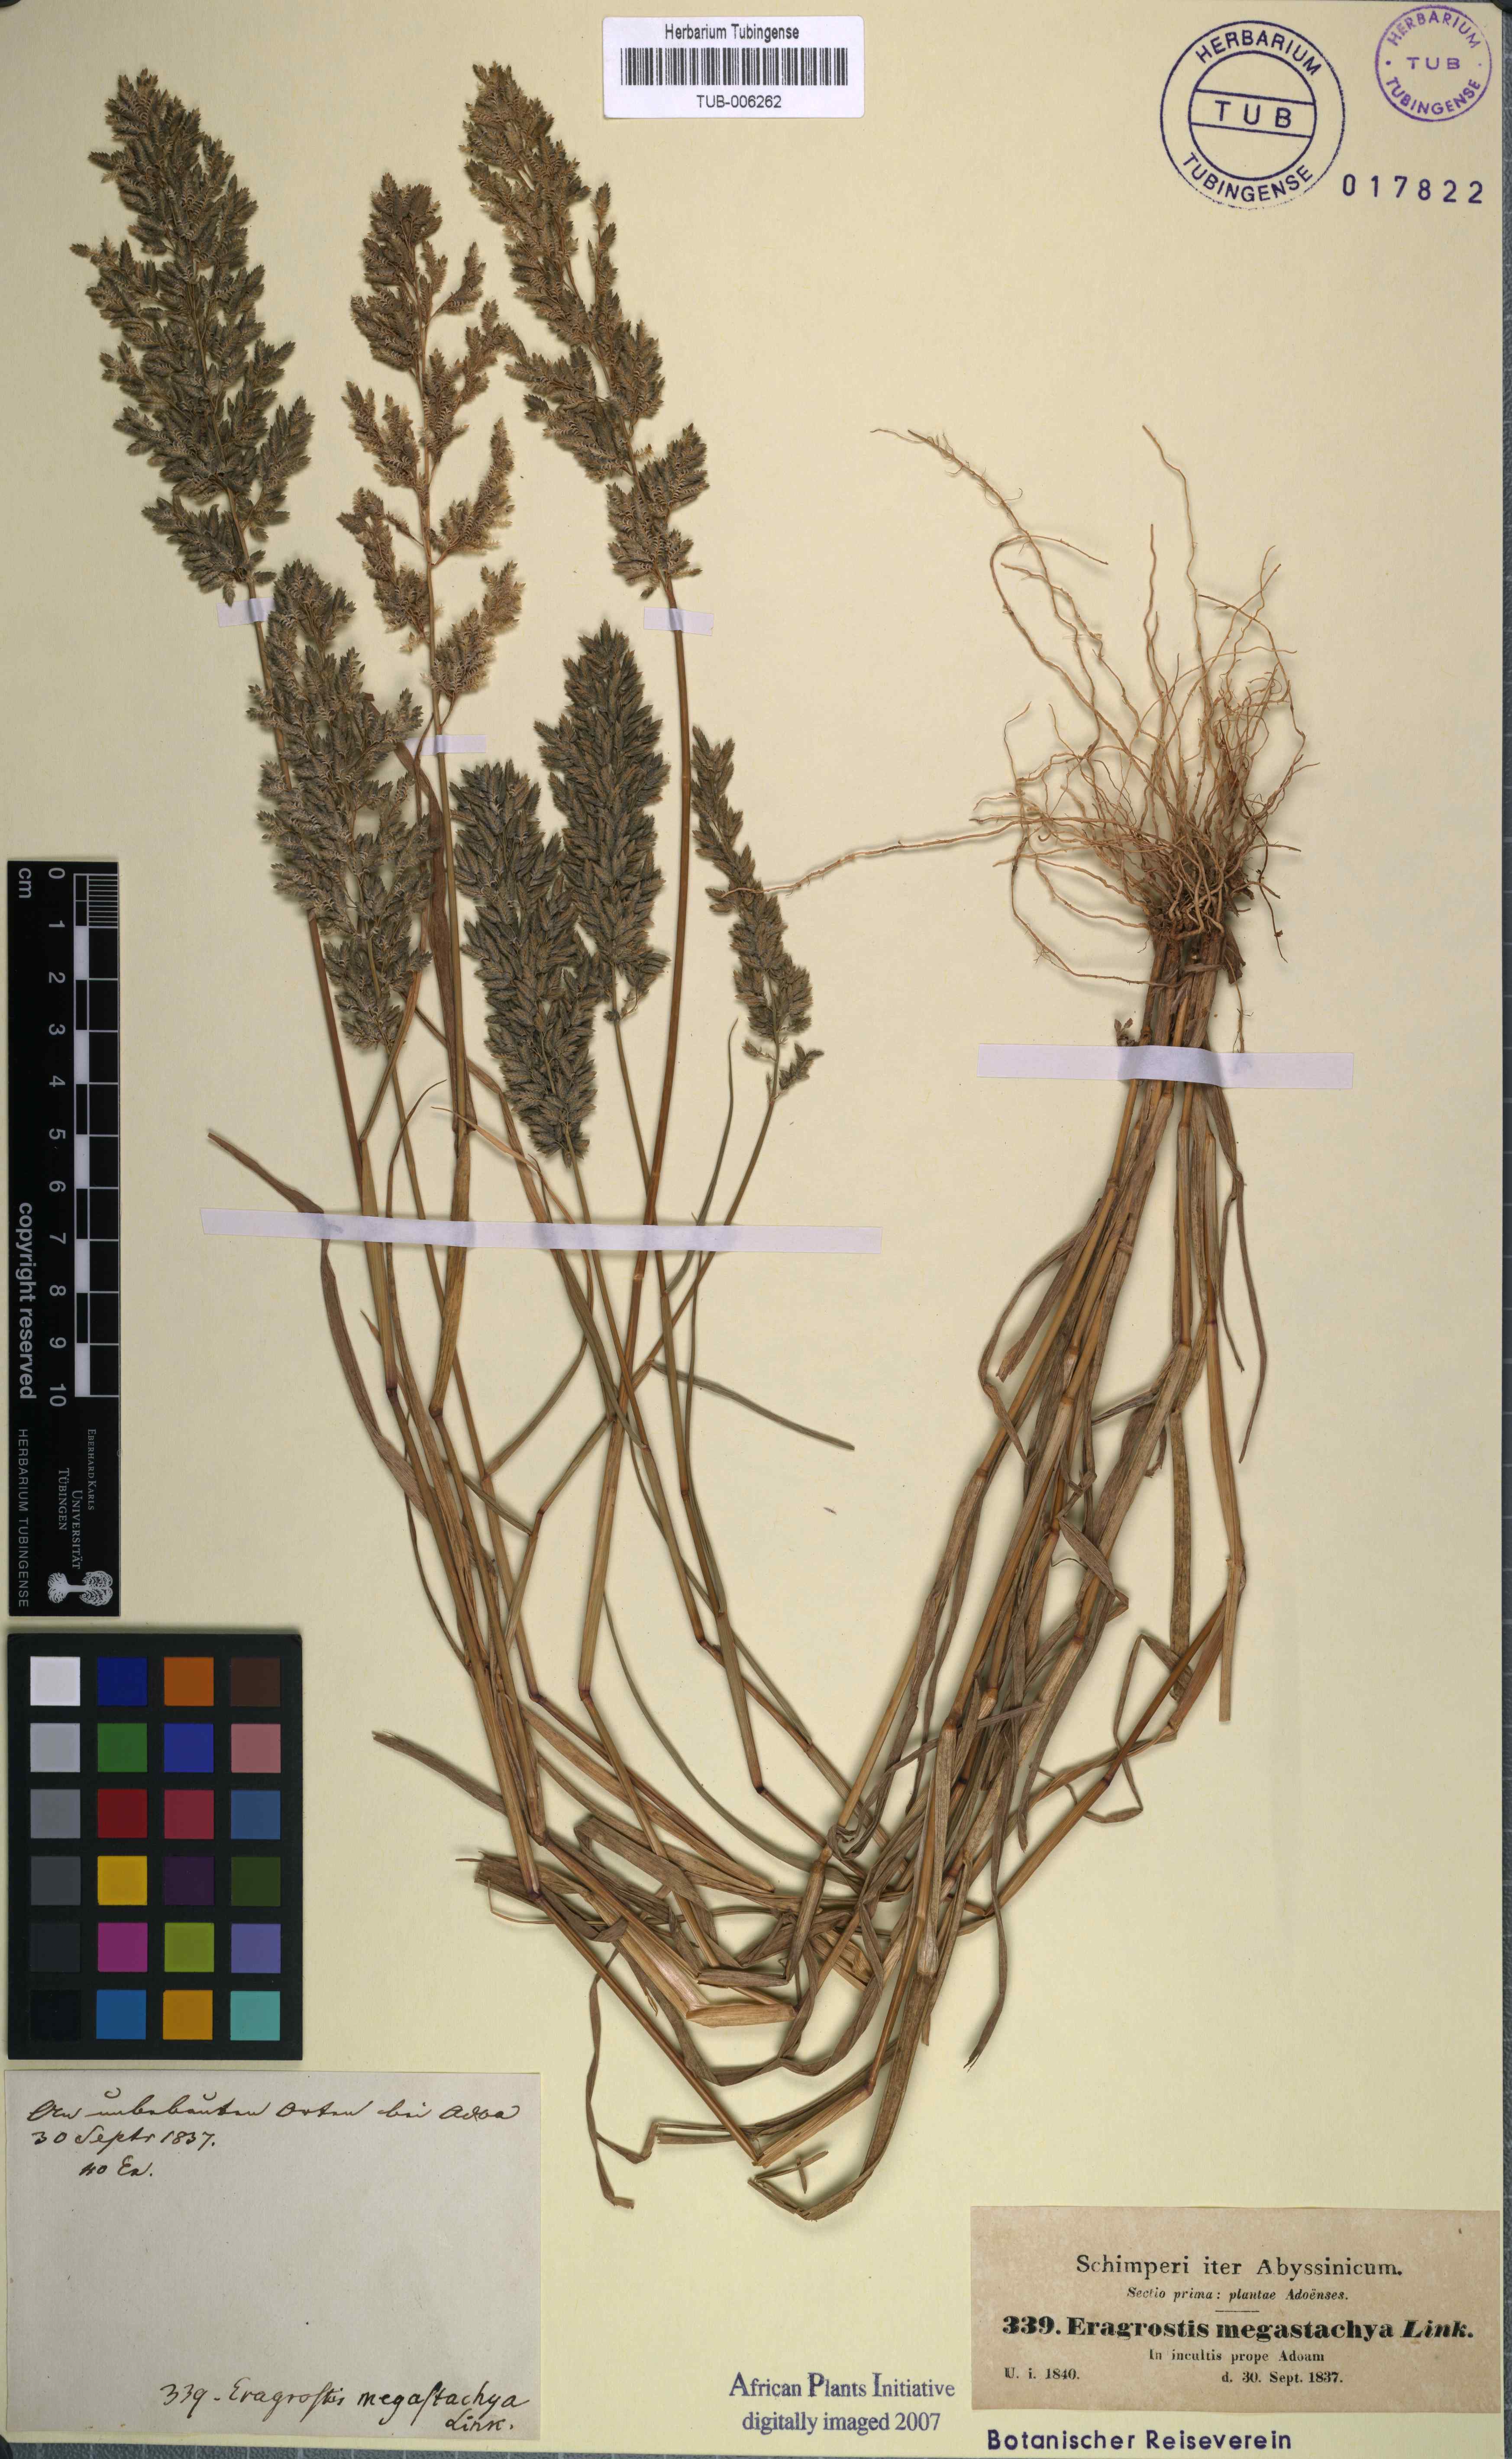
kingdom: Plantae
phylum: Tracheophyta
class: Liliopsida
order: Poales
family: Poaceae
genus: Eragrostis
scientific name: Eragrostis
